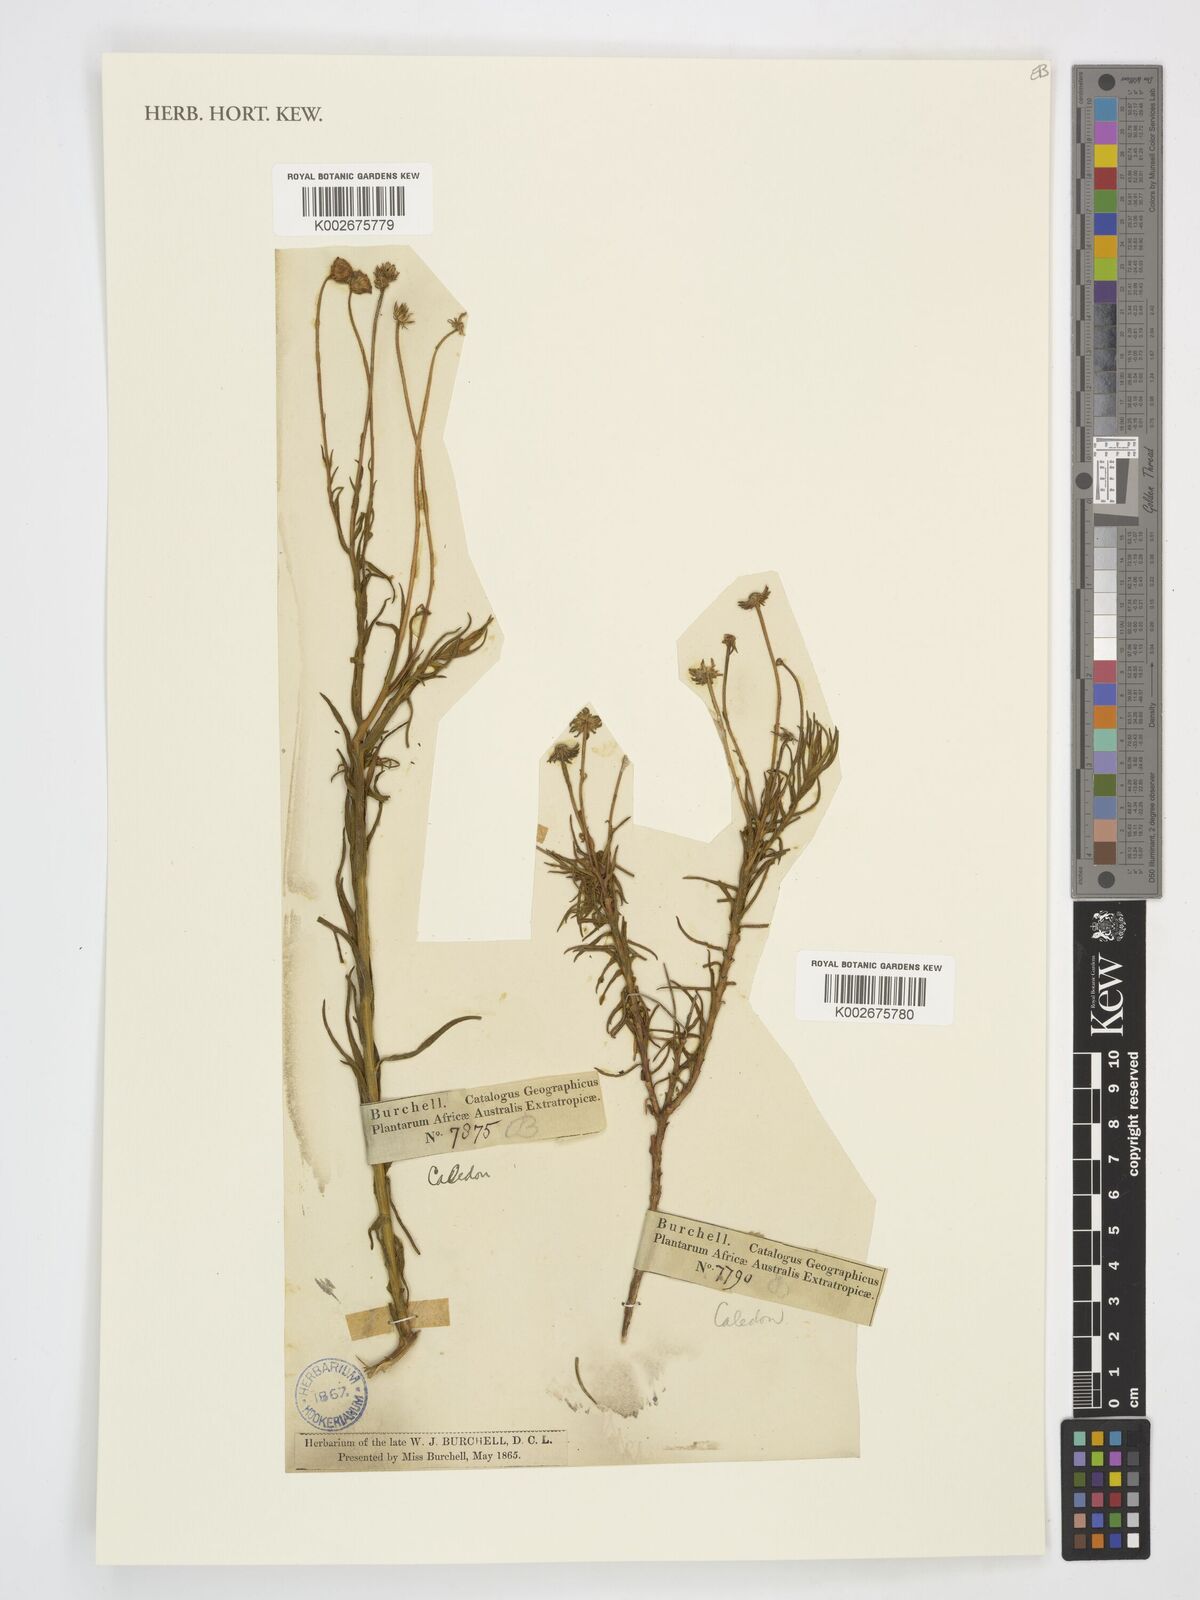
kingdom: Plantae
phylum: Tracheophyta
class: Magnoliopsida
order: Asterales
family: Asteraceae
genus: Zyrphelis
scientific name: Zyrphelis
